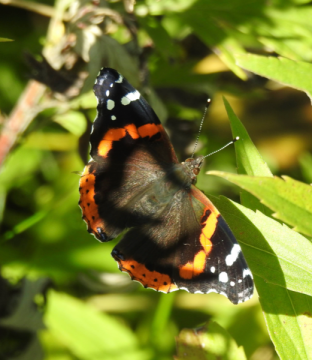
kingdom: Animalia
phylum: Arthropoda
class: Insecta
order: Lepidoptera
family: Nymphalidae
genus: Vanessa
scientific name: Vanessa atalanta
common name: Red Admiral
